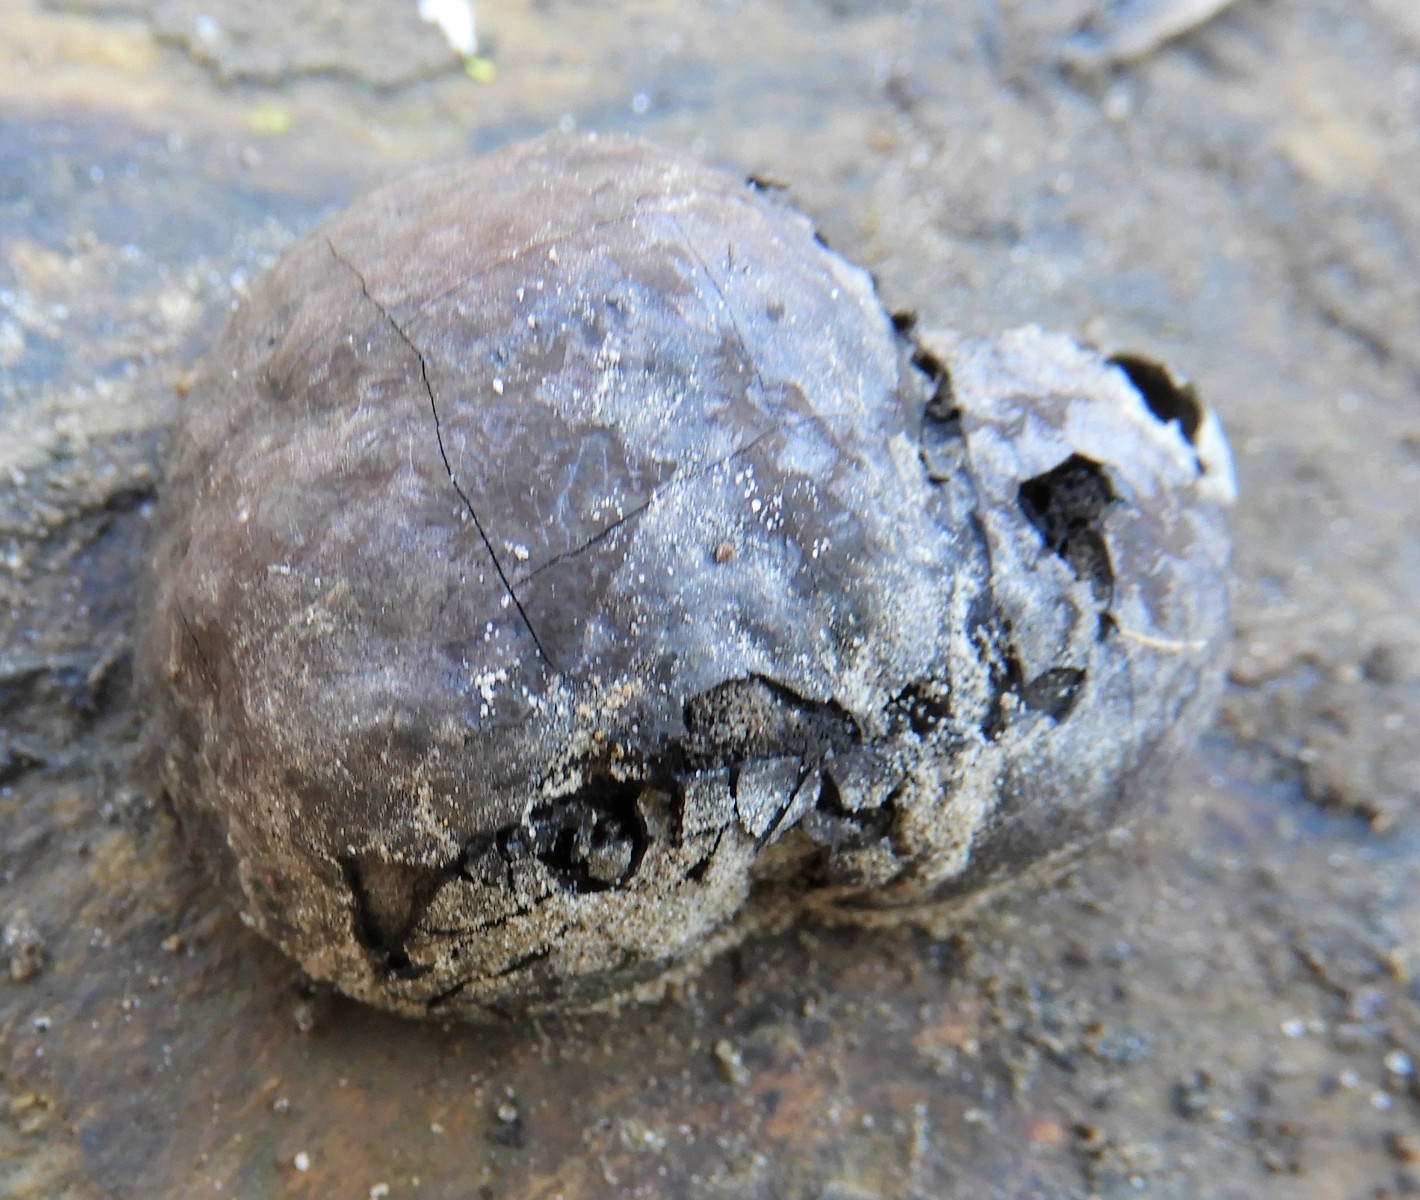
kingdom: Fungi
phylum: Ascomycota
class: Sordariomycetes
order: Xylariales
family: Hypoxylaceae
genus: Daldinia
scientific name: Daldinia concentrica
